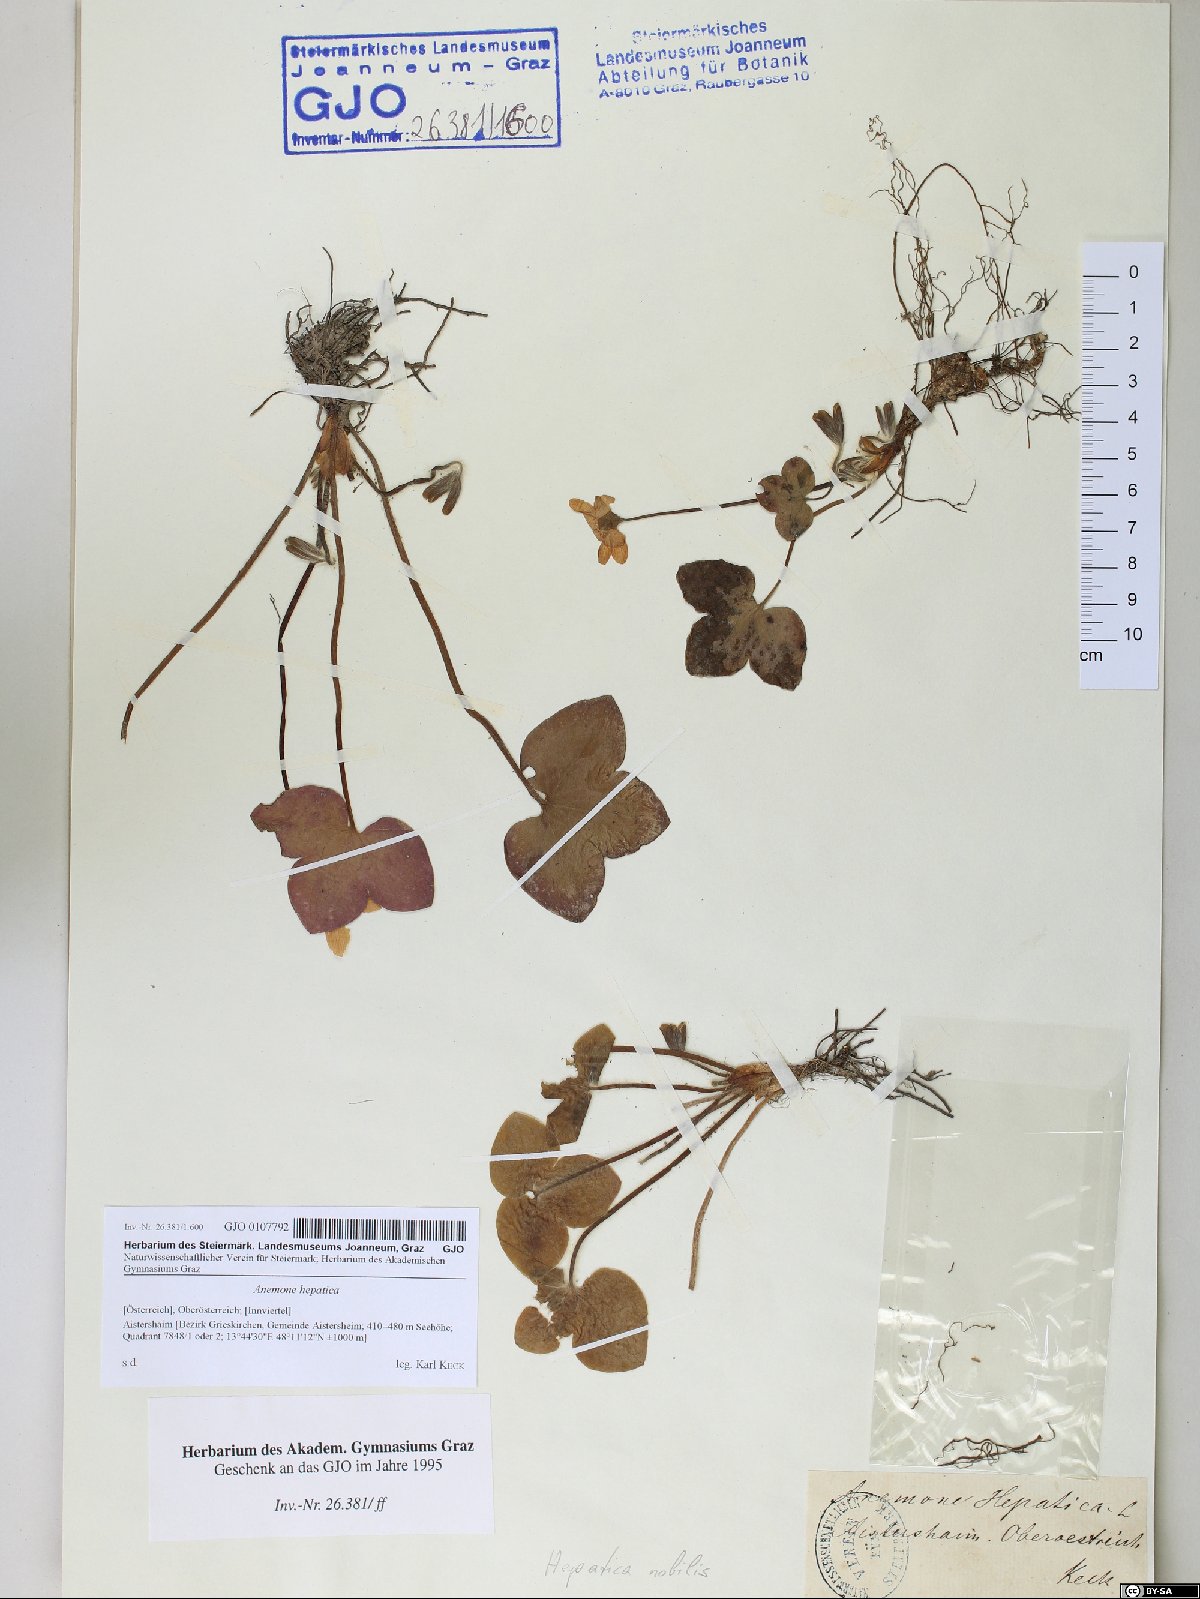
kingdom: Plantae
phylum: Tracheophyta
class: Magnoliopsida
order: Ranunculales
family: Ranunculaceae
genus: Hepatica
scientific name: Hepatica nobilis
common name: Liverleaf
